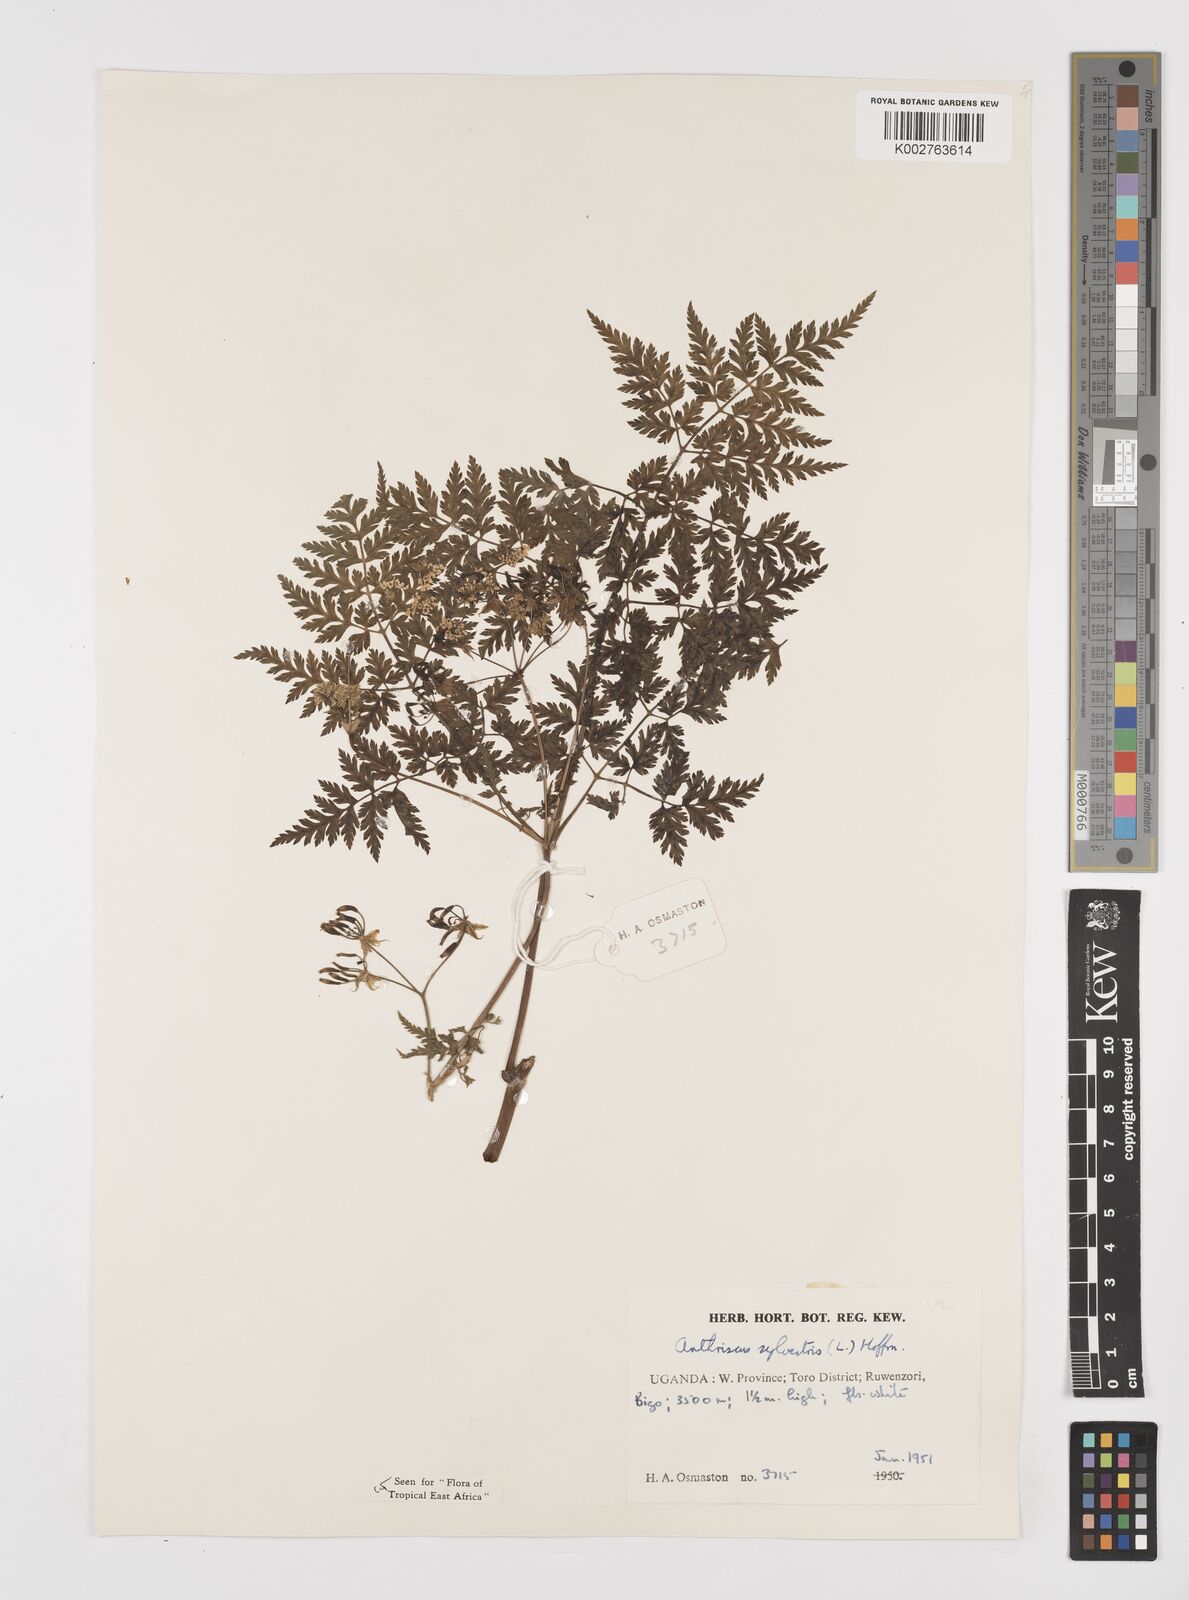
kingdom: Plantae
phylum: Tracheophyta
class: Magnoliopsida
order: Apiales
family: Apiaceae
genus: Anthriscus
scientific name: Anthriscus sylvestris
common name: Cow parsley
